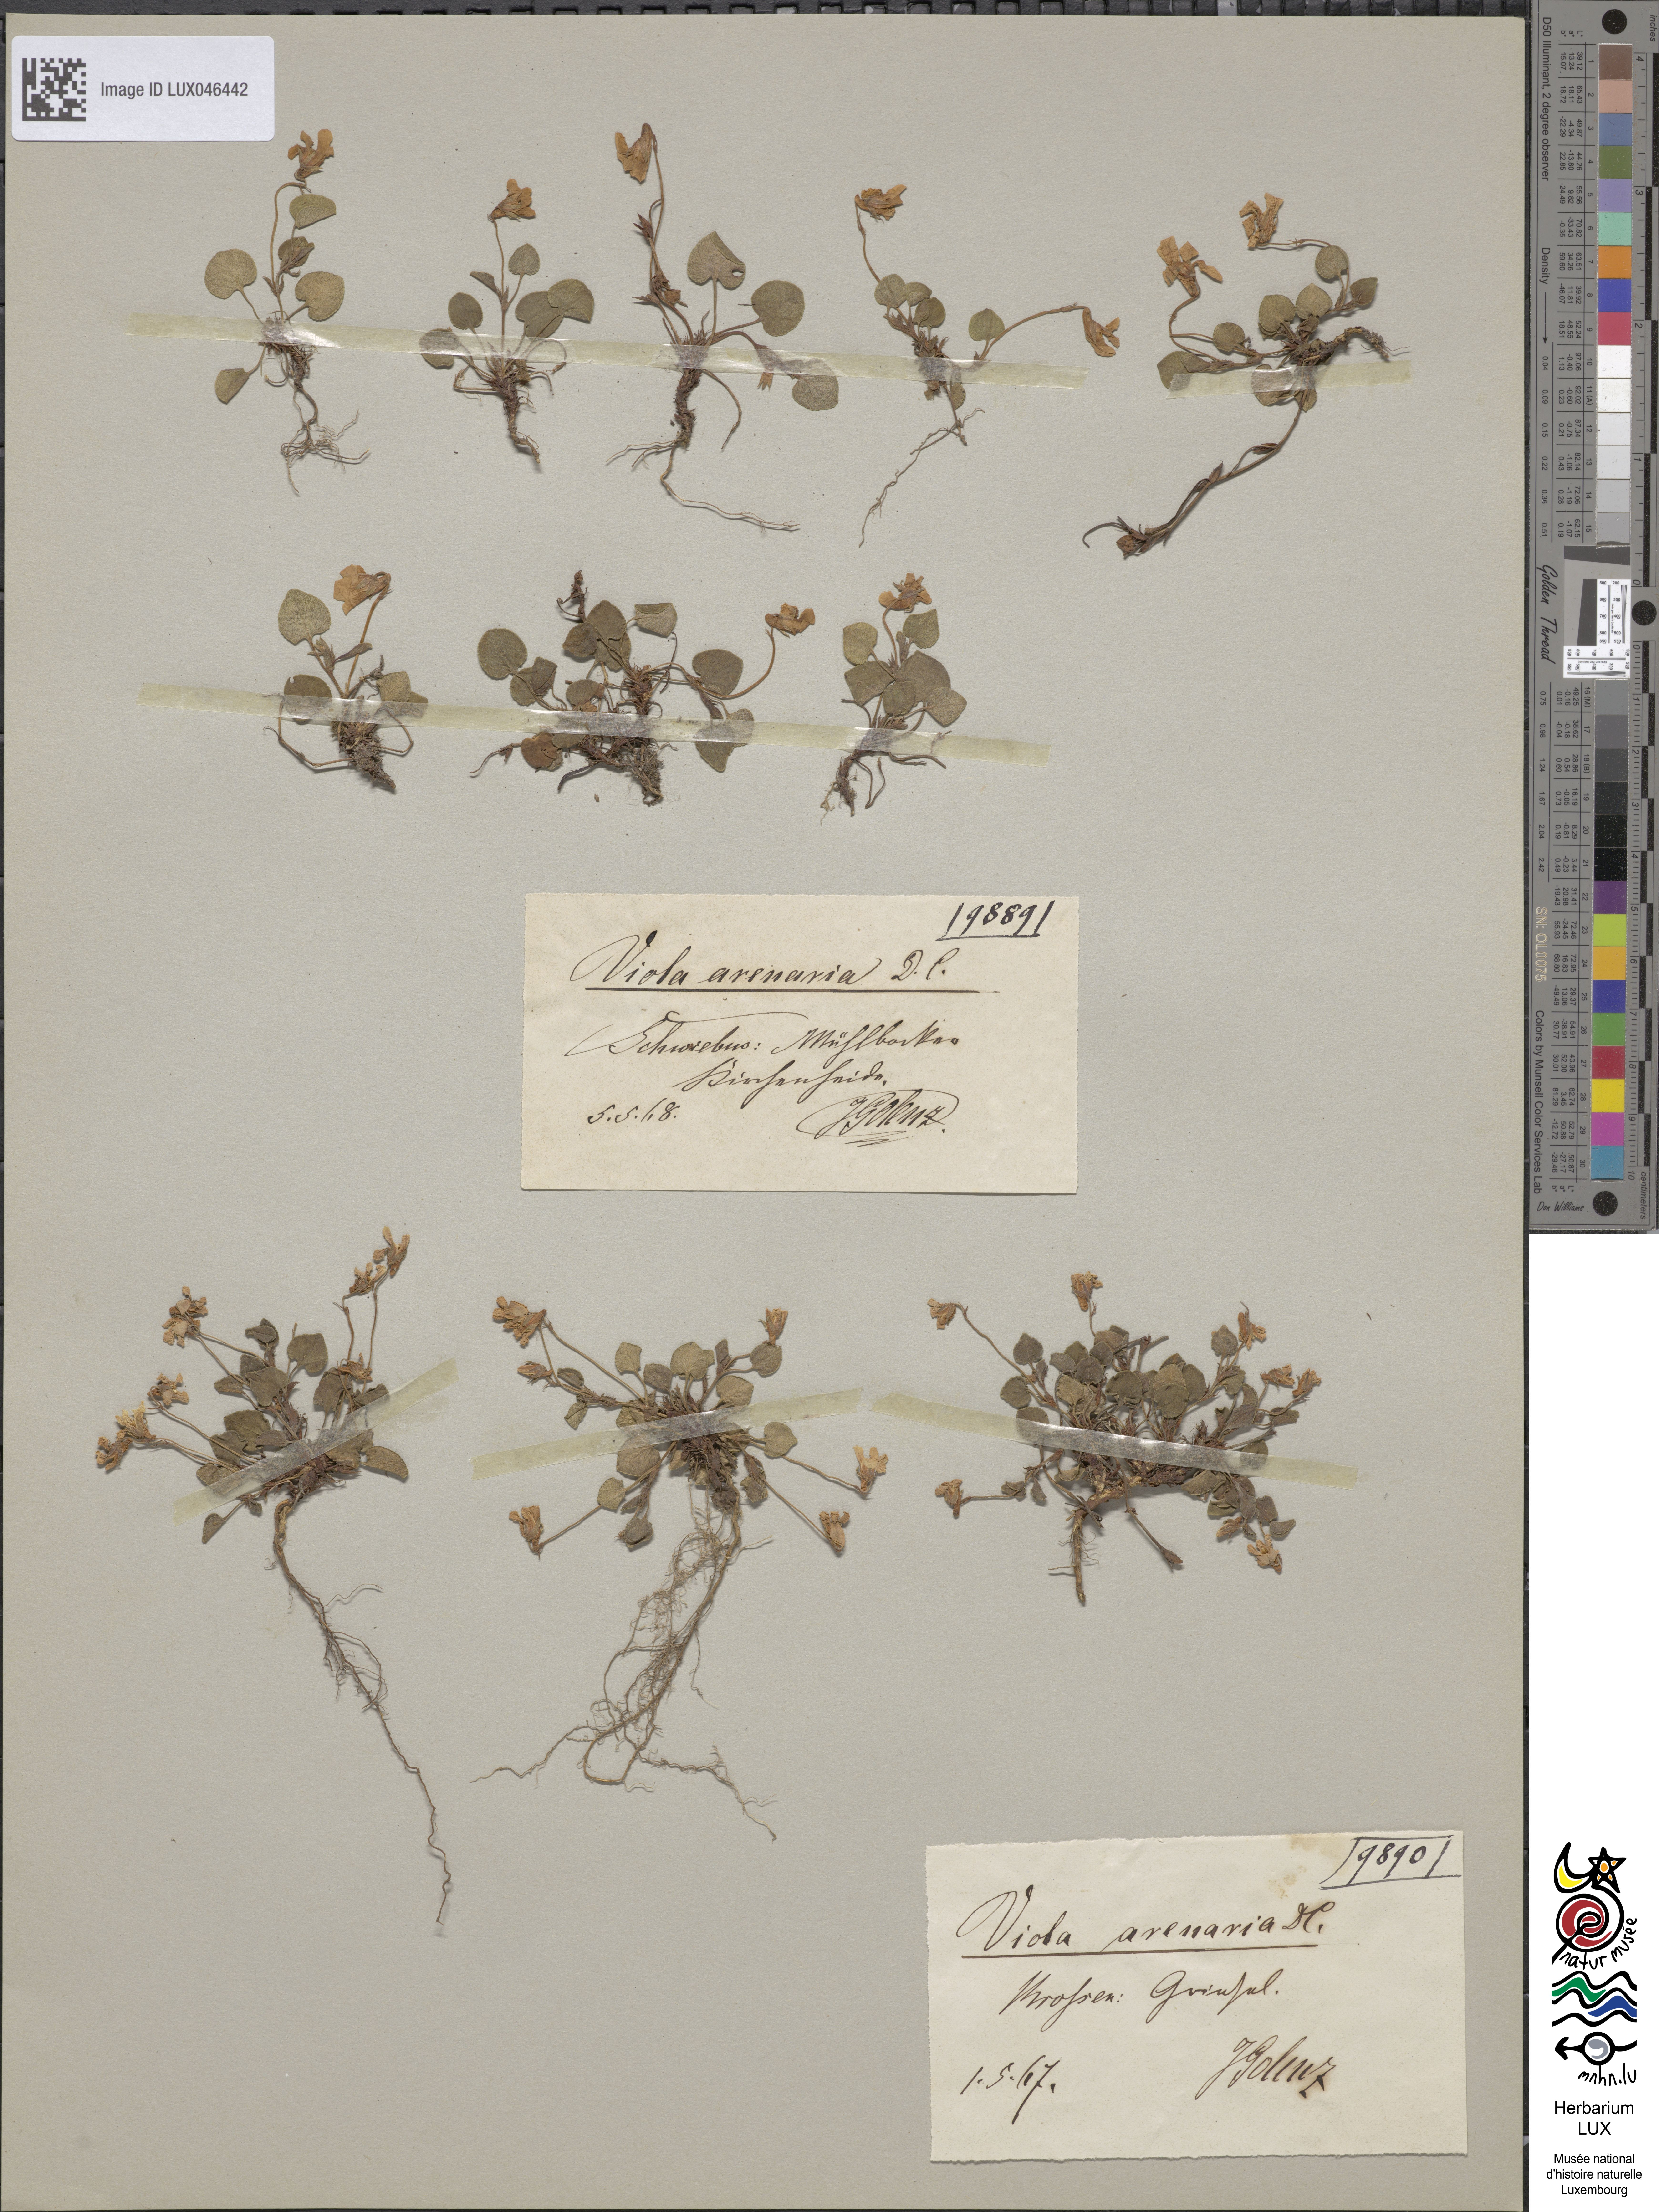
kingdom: Plantae
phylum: Tracheophyta
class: Magnoliopsida
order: Malpighiales
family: Violaceae
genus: Viola
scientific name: Viola rupestris
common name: Teesdale violet
